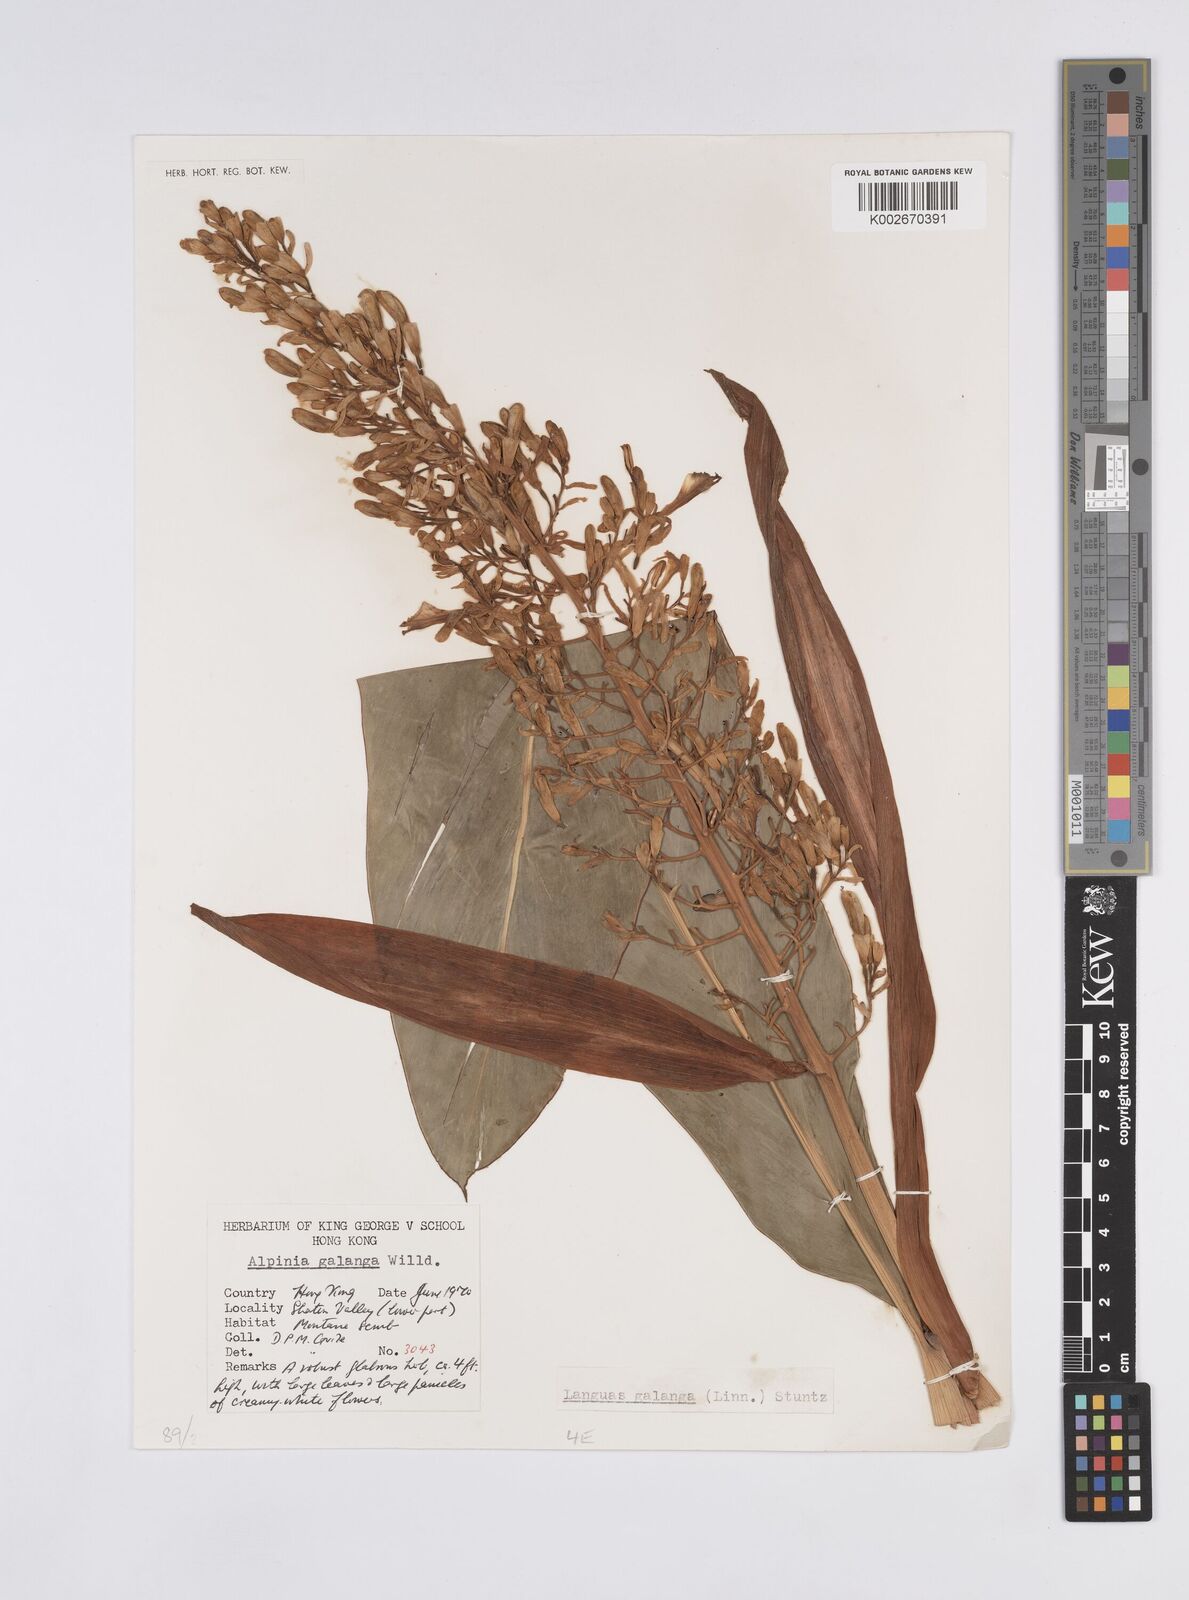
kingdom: Plantae
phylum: Tracheophyta
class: Liliopsida
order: Zingiberales
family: Zingiberaceae
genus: Alpinia
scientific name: Alpinia galanga
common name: Siamese-ginger
